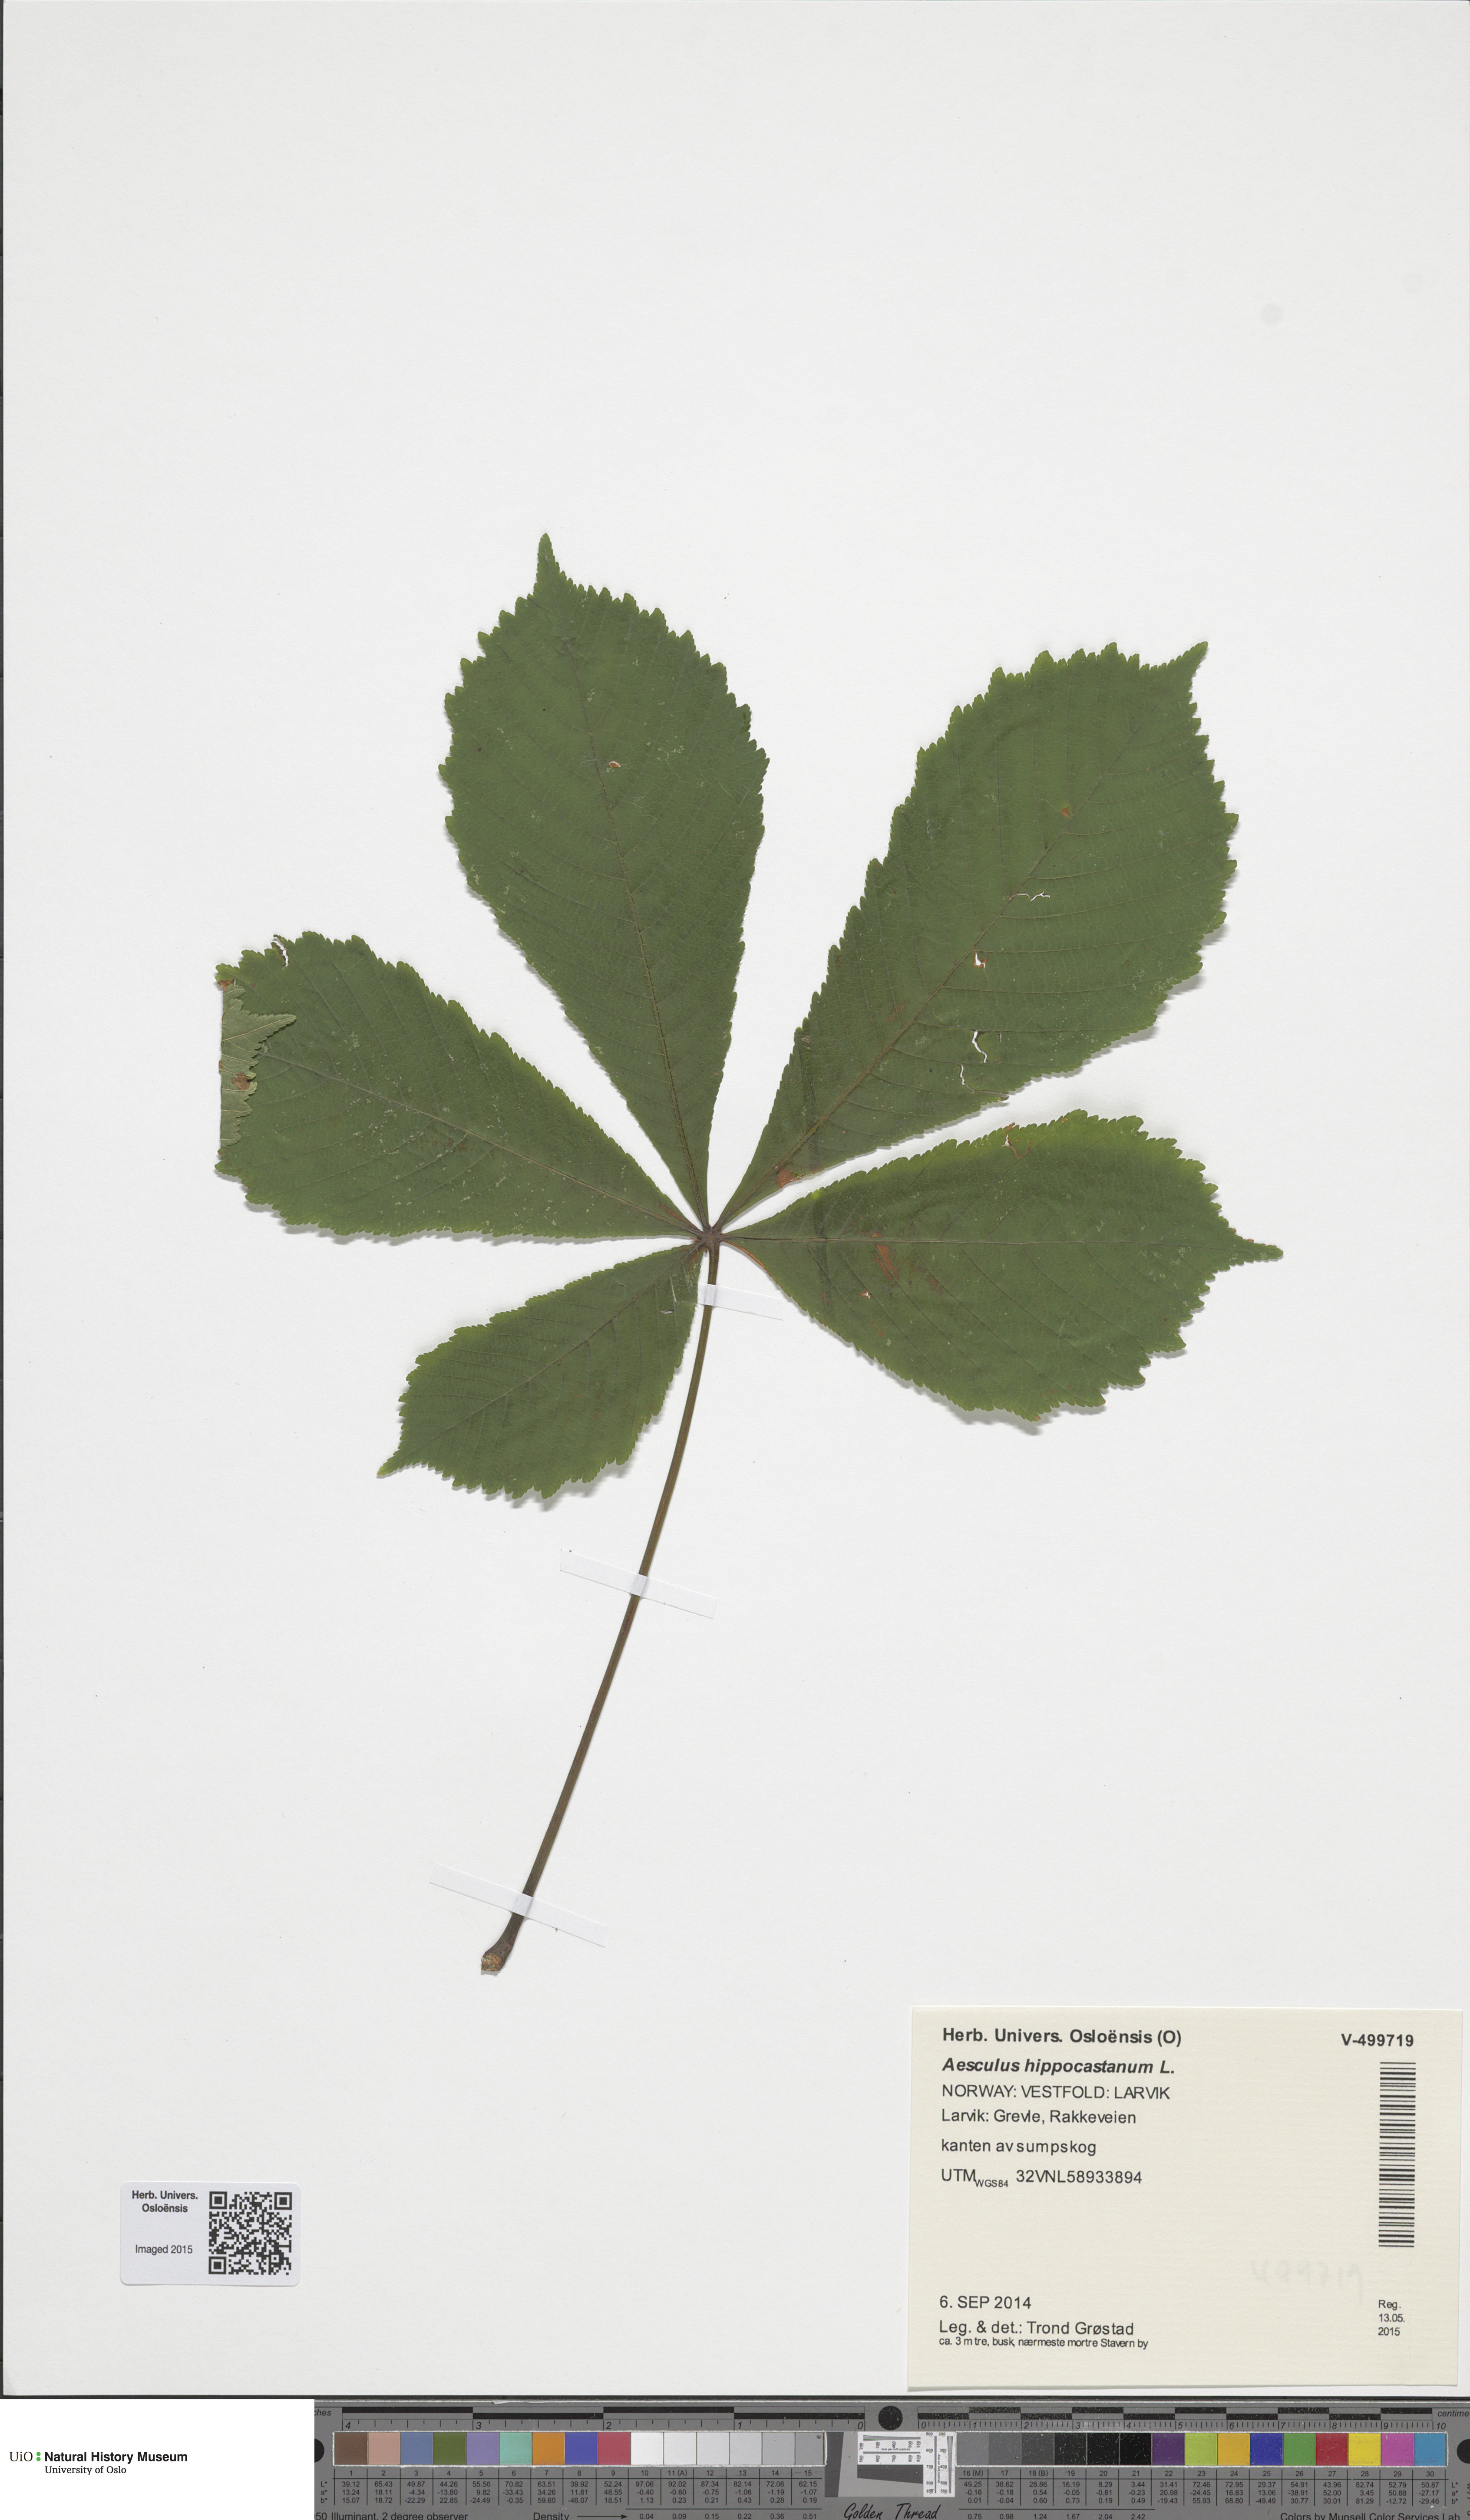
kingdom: Plantae
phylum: Tracheophyta
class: Magnoliopsida
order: Sapindales
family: Sapindaceae
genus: Aesculus
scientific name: Aesculus hippocastanum
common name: Horse-chestnut
